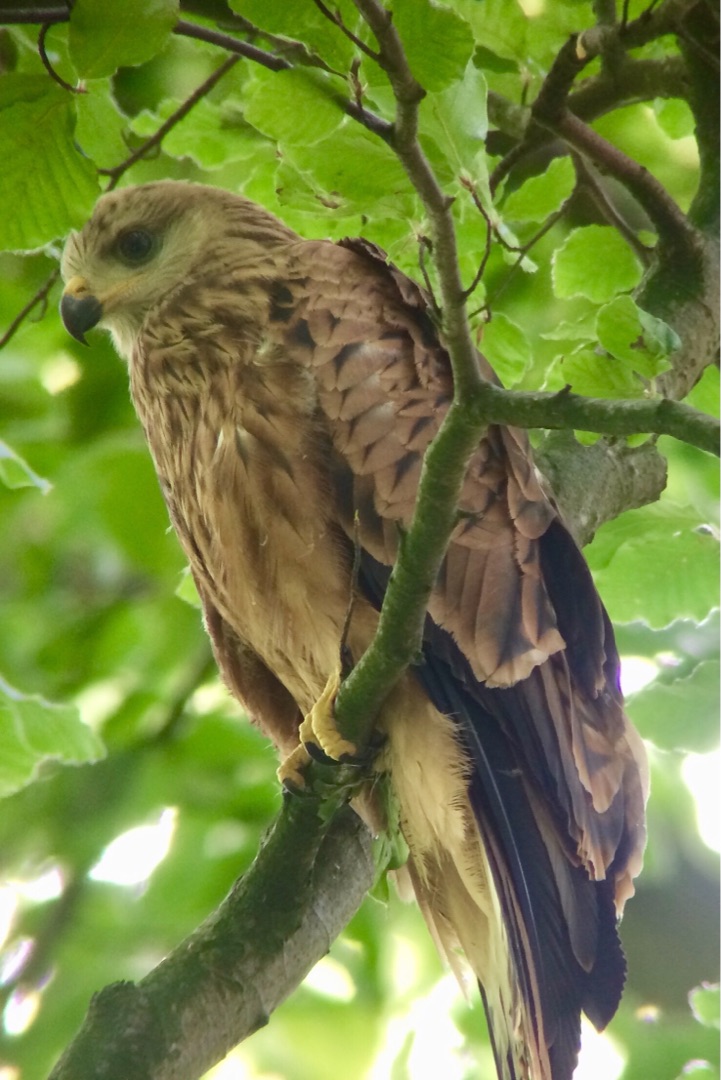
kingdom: Animalia
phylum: Chordata
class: Aves
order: Accipitriformes
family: Accipitridae
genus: Milvus
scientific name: Milvus milvus
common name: Rød glente
